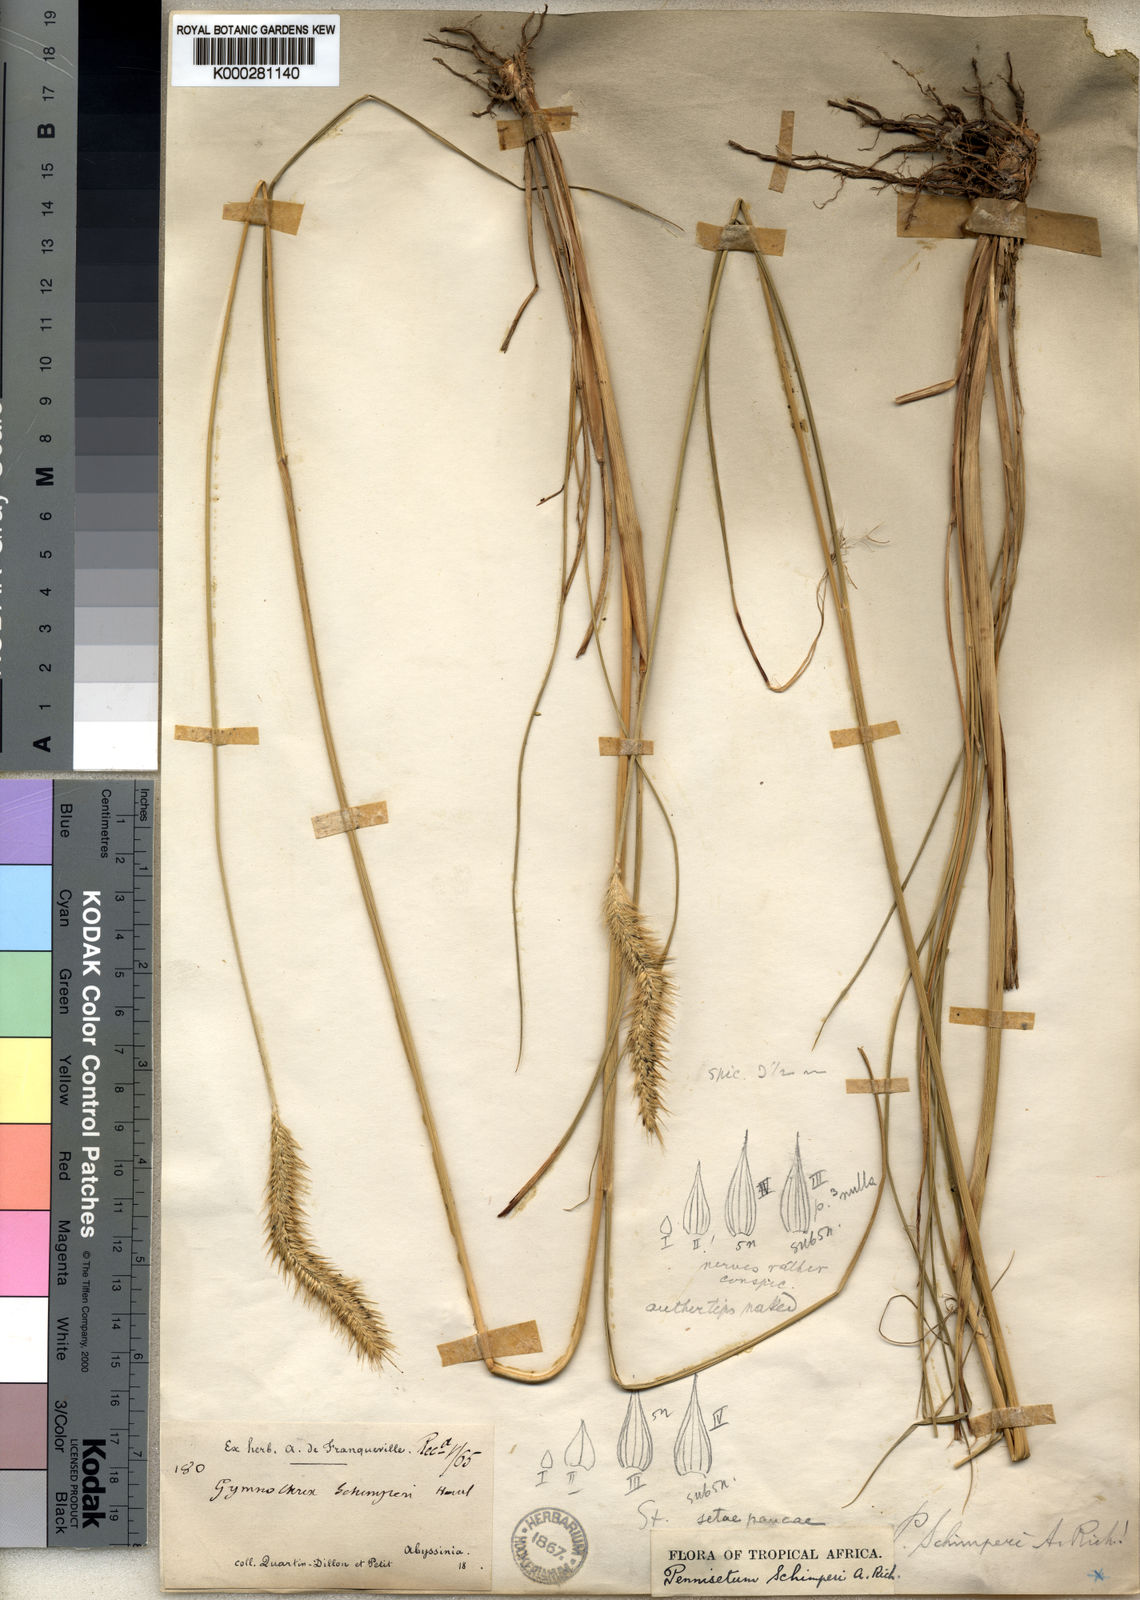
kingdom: Plantae
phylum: Tracheophyta
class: Liliopsida
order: Poales
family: Poaceae
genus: Cenchrus
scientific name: Cenchrus Pennisetum spec
